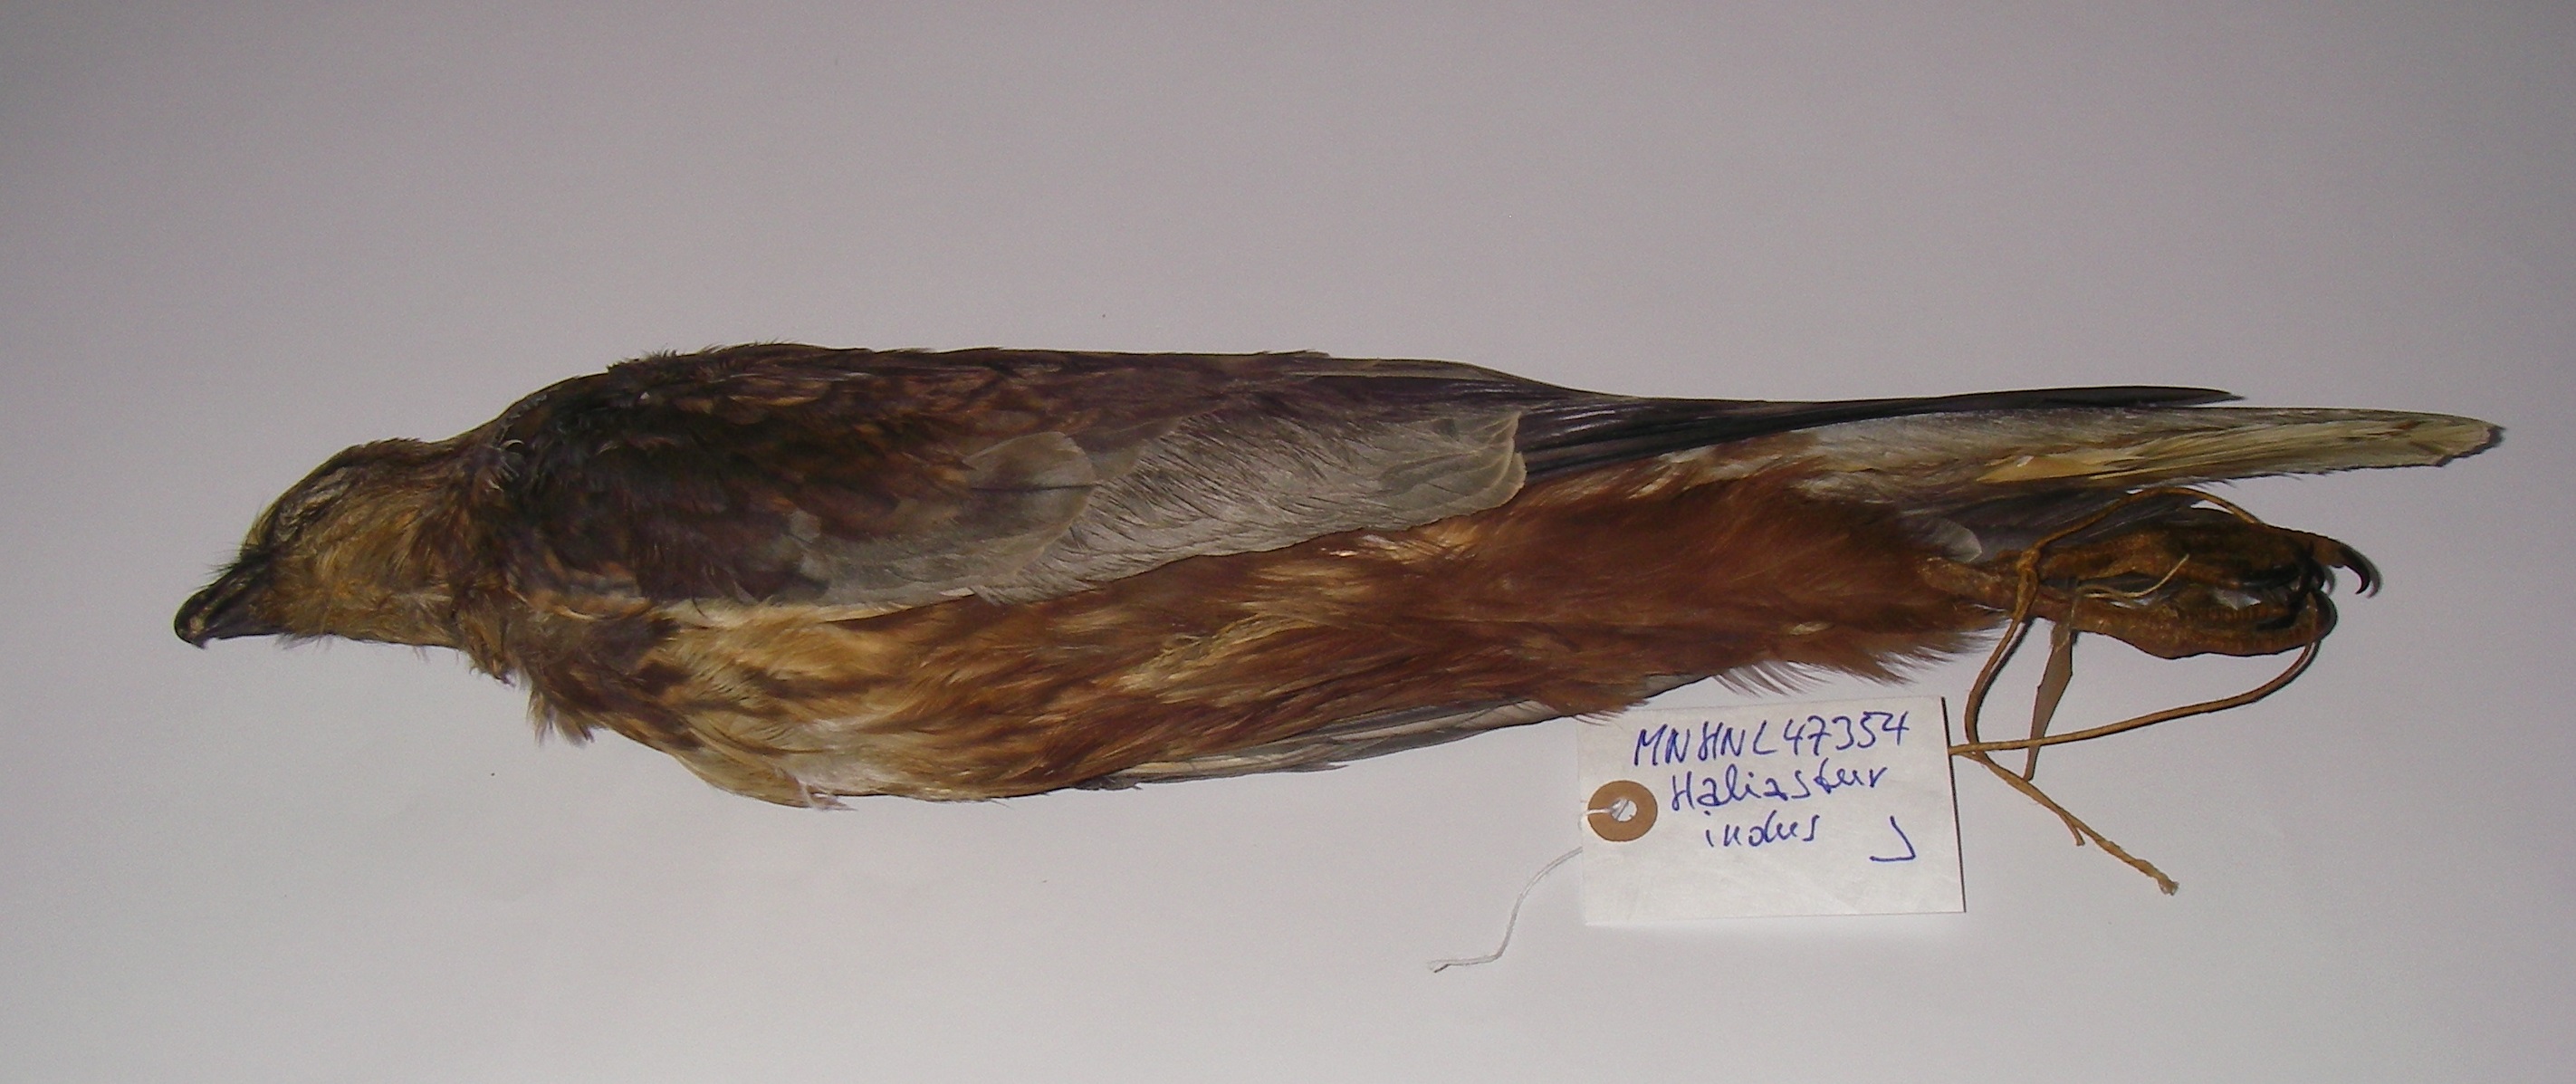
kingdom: Animalia
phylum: Chordata
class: Aves
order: Accipitriformes
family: Accipitridae
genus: Haliastur
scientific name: Haliastur indus
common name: Brahminy kite
